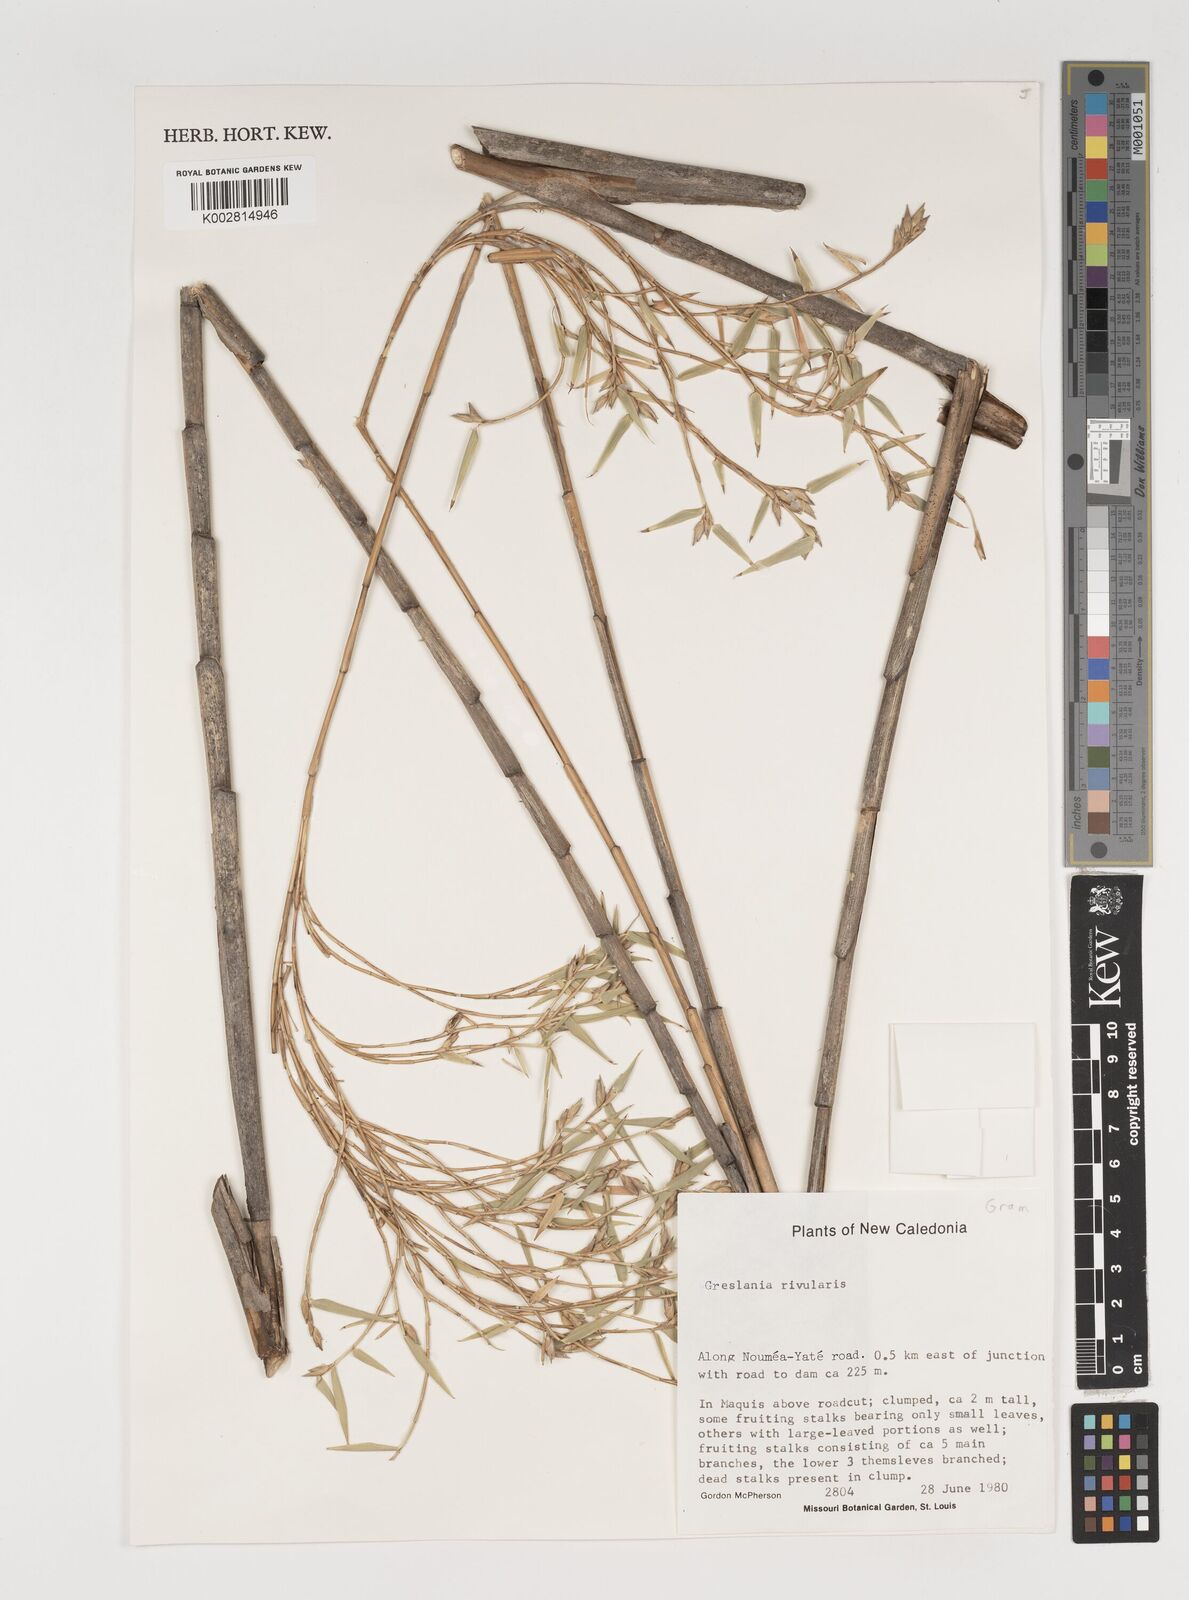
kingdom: Plantae
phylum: Tracheophyta
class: Liliopsida
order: Poales
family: Poaceae
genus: Greslania
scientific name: Greslania
